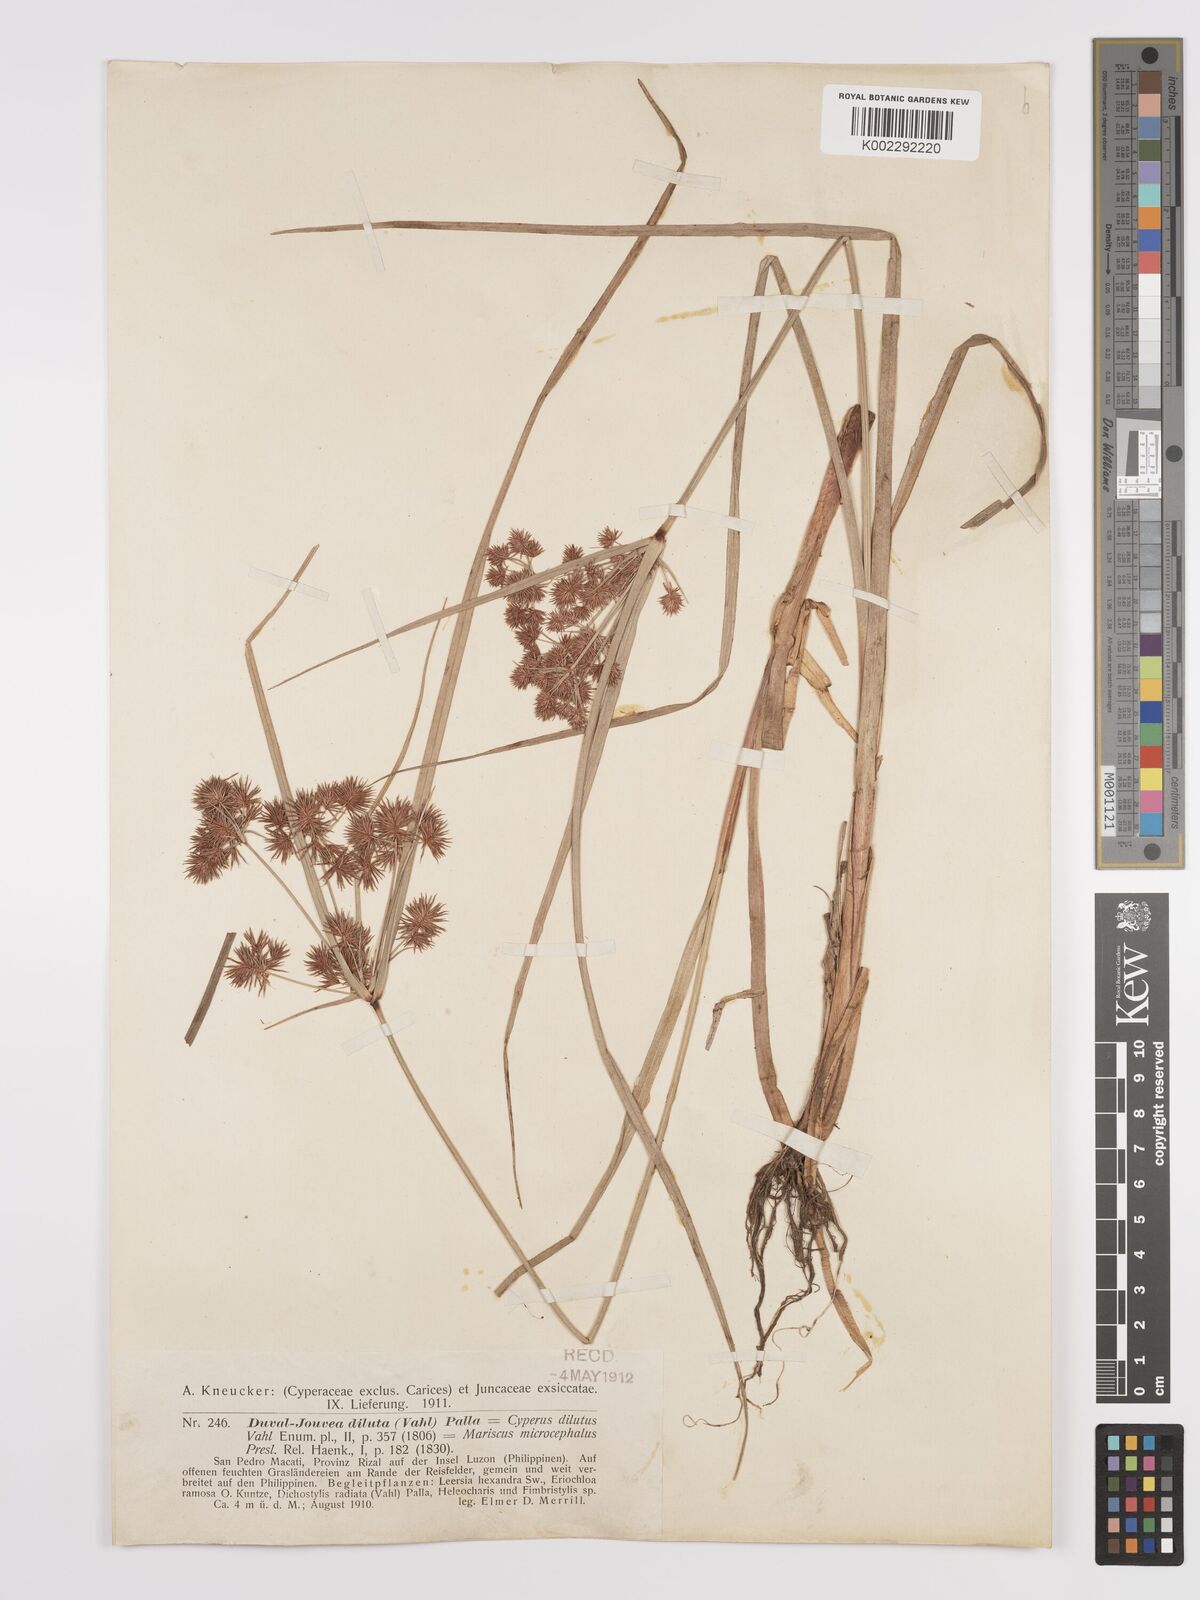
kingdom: Plantae
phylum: Tracheophyta
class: Liliopsida
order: Poales
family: Cyperaceae
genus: Cyperus
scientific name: Cyperus compactus
